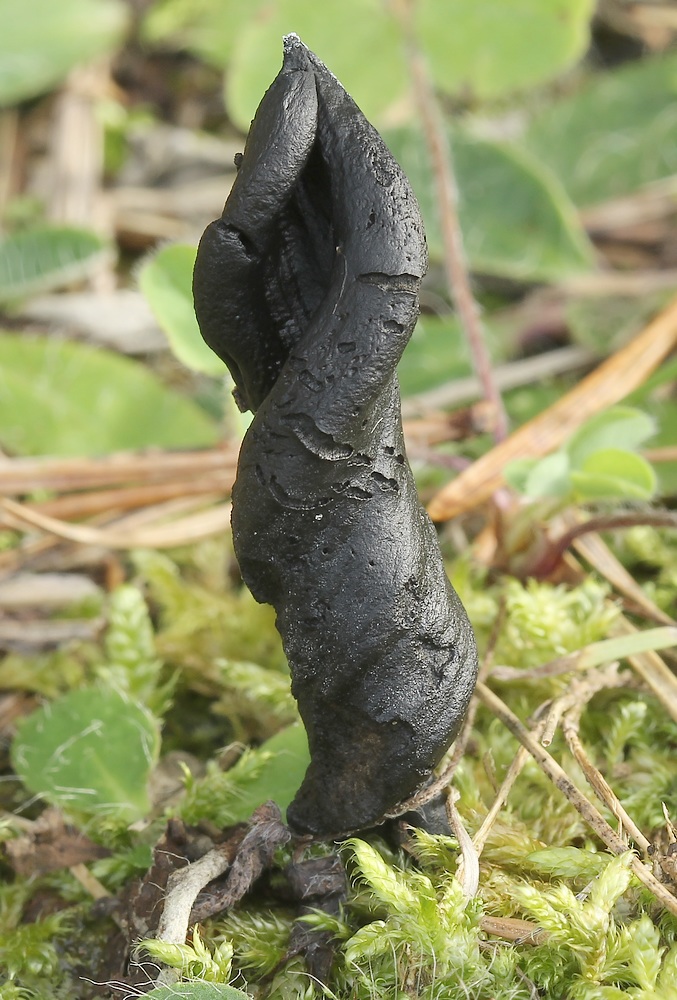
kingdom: Fungi
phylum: Ascomycota
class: Geoglossomycetes
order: Geoglossales
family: Geoglossaceae
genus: Geoglossum
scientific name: Geoglossum cookeianum
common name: bred jordtunge
